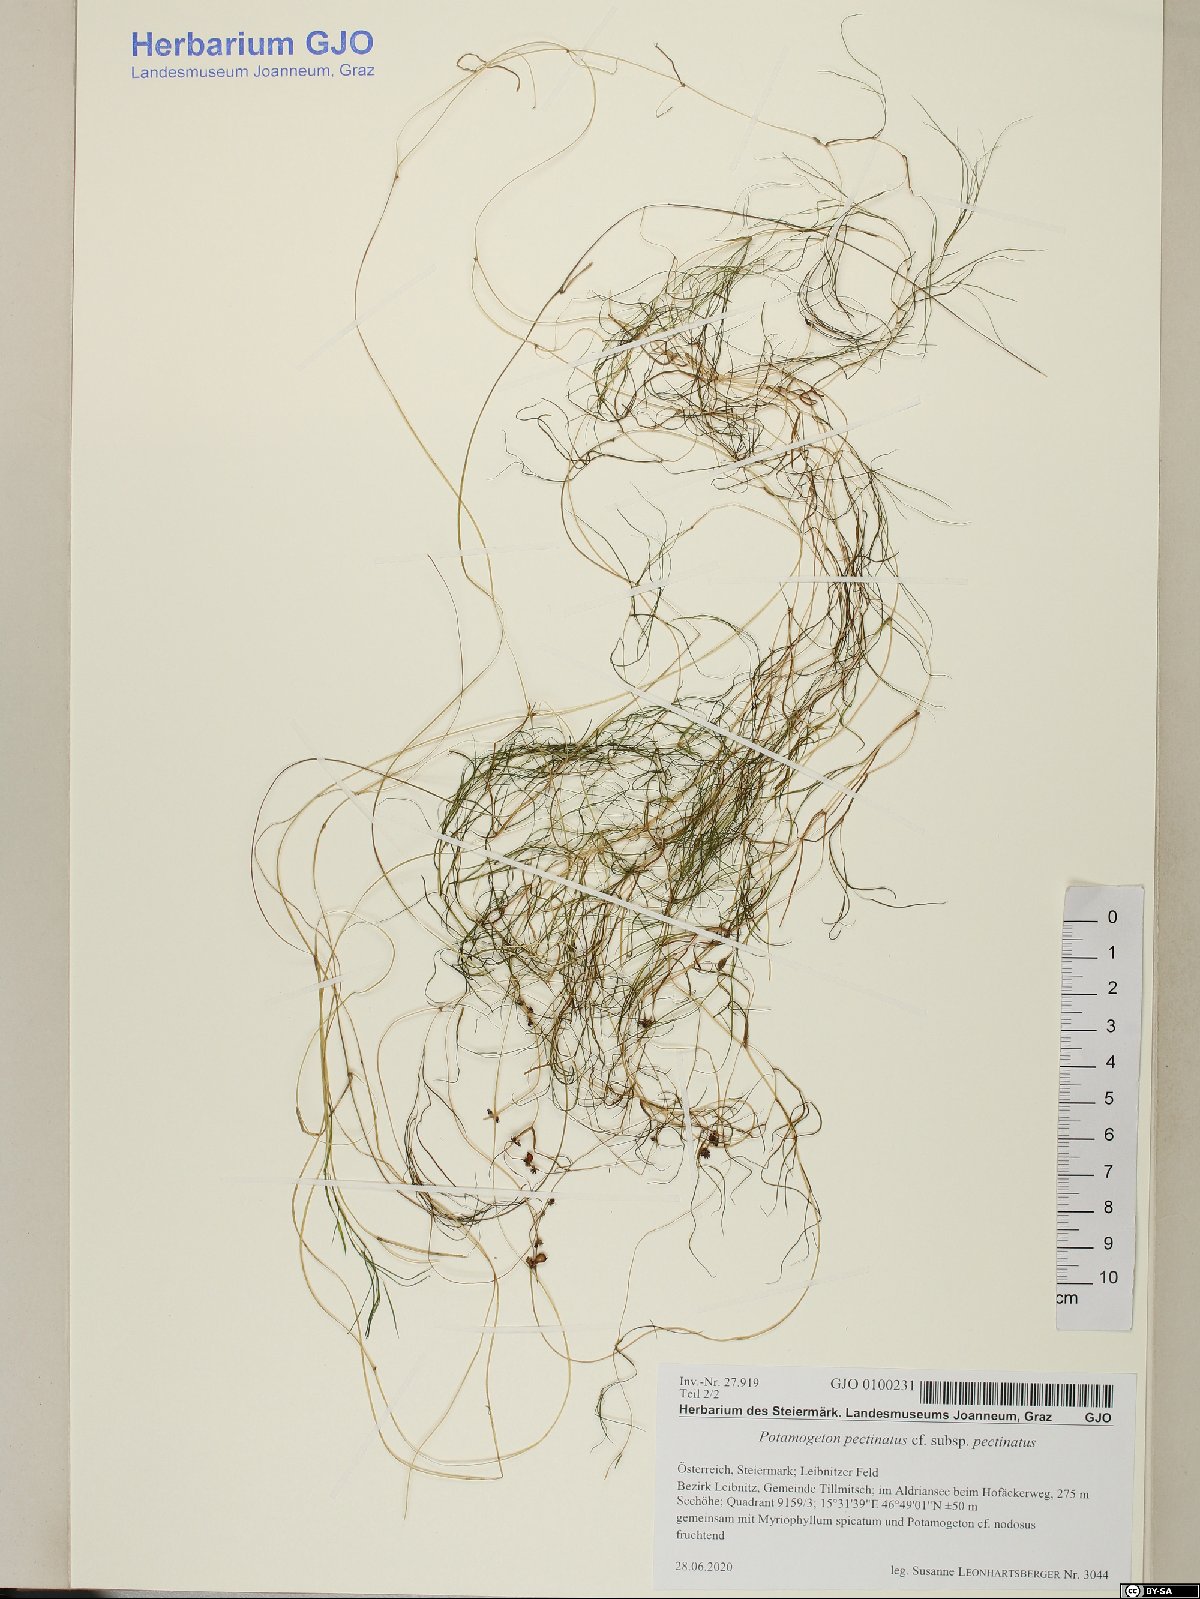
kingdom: Plantae
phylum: Tracheophyta
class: Liliopsida
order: Alismatales
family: Potamogetonaceae
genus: Stuckenia
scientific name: Stuckenia pectinata
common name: Sago pondweed
